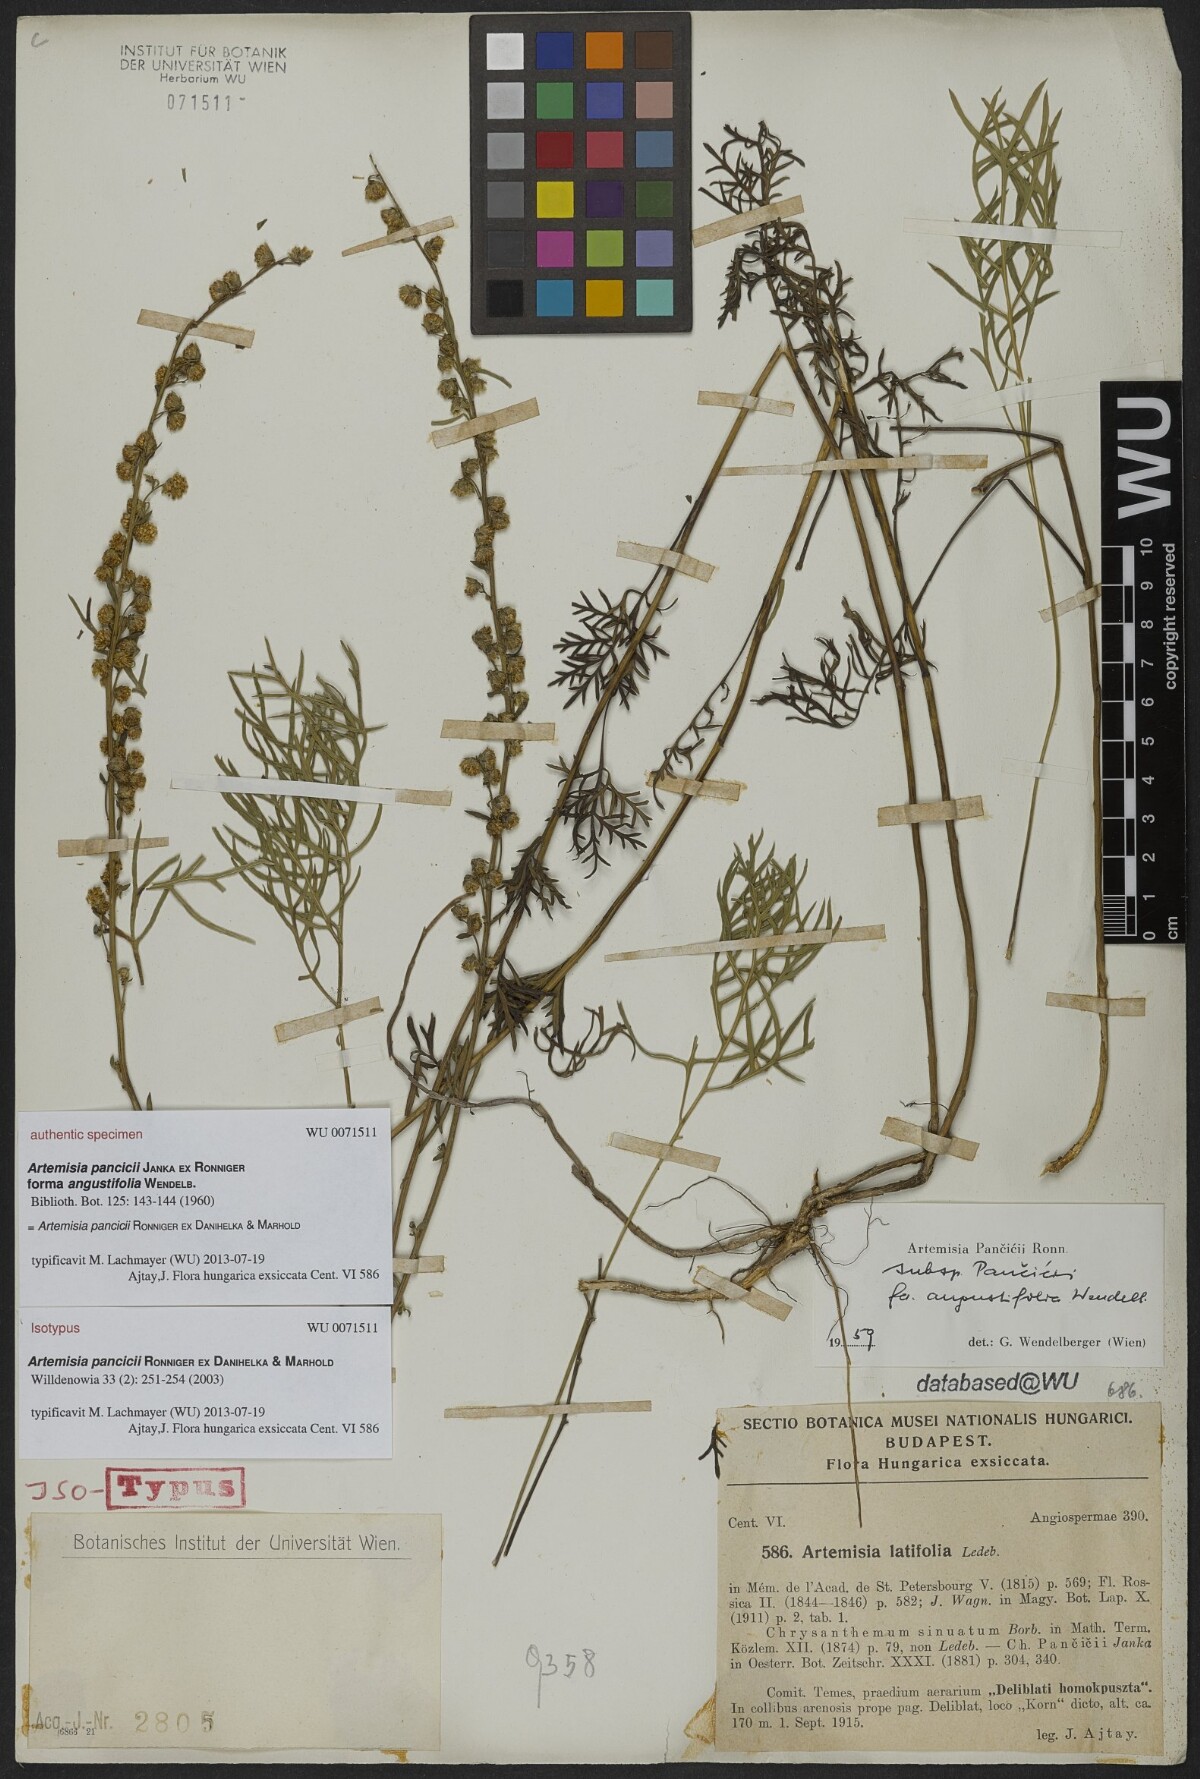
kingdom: Plantae
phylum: Tracheophyta
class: Magnoliopsida
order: Asterales
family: Asteraceae
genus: Artemisia
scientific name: Artemisia pancicii
